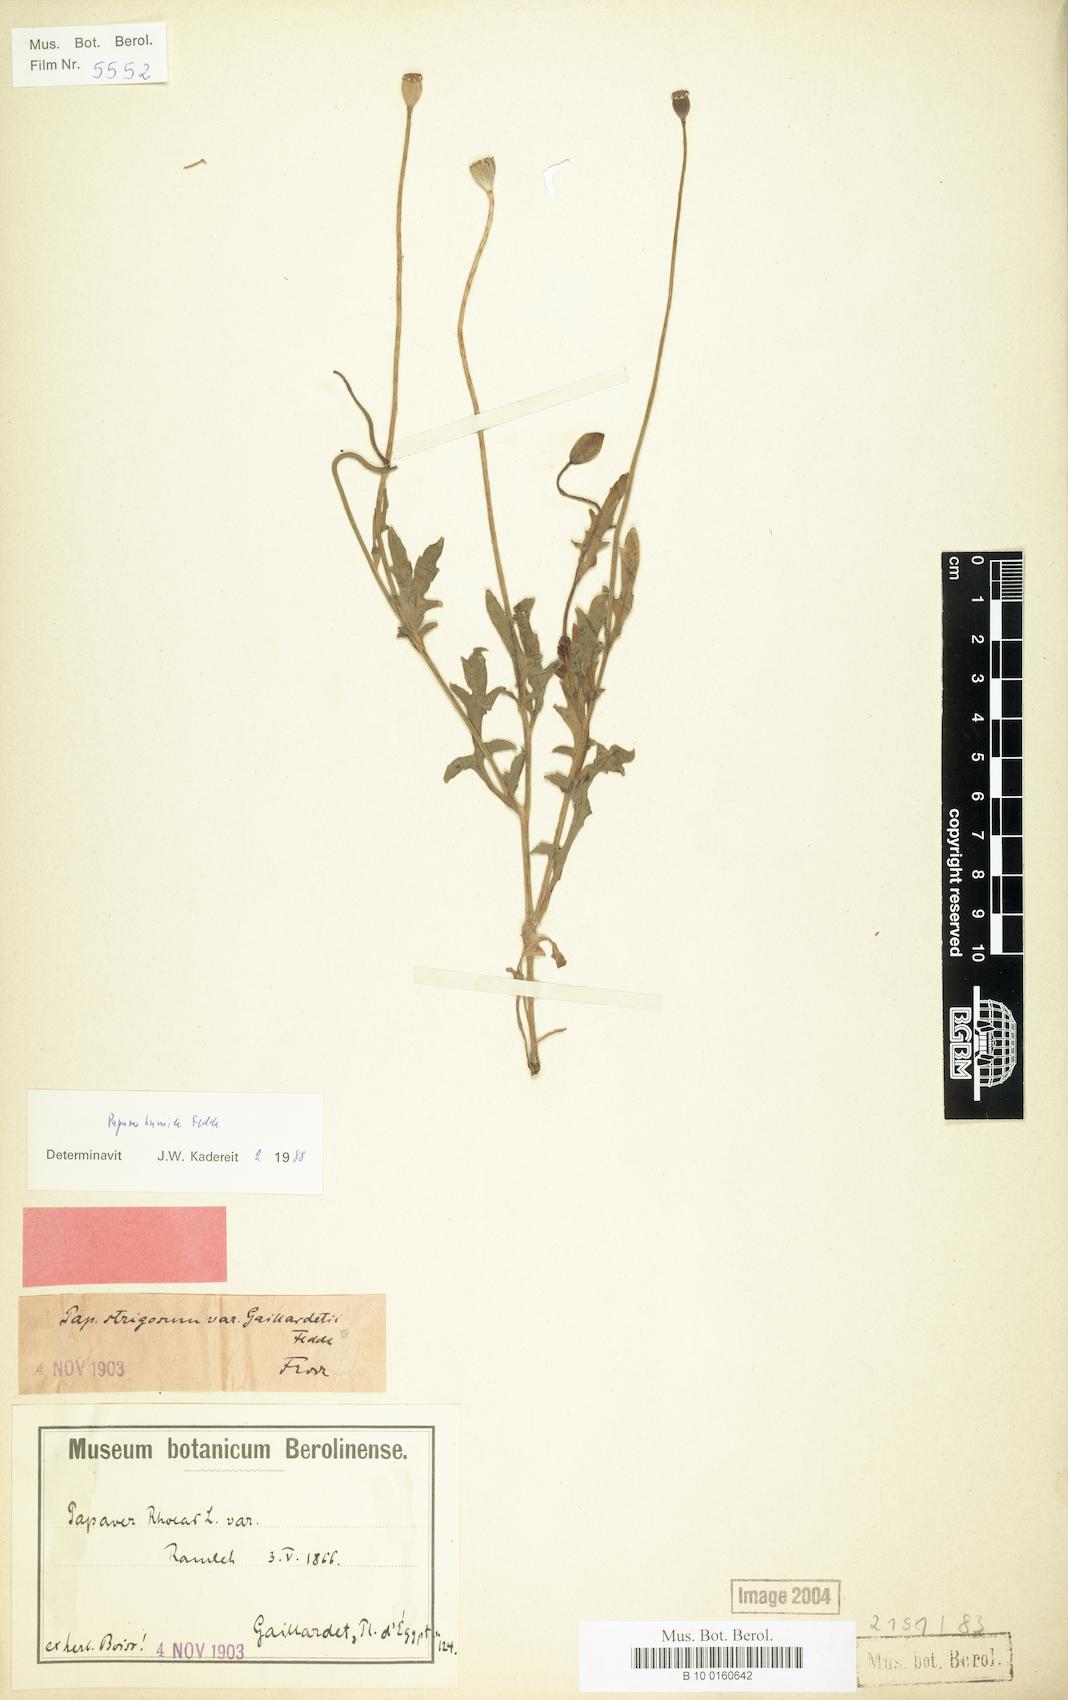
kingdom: Plantae
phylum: Tracheophyta
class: Magnoliopsida
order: Ranunculales
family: Papaveraceae
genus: Papaver
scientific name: Papaver humile
